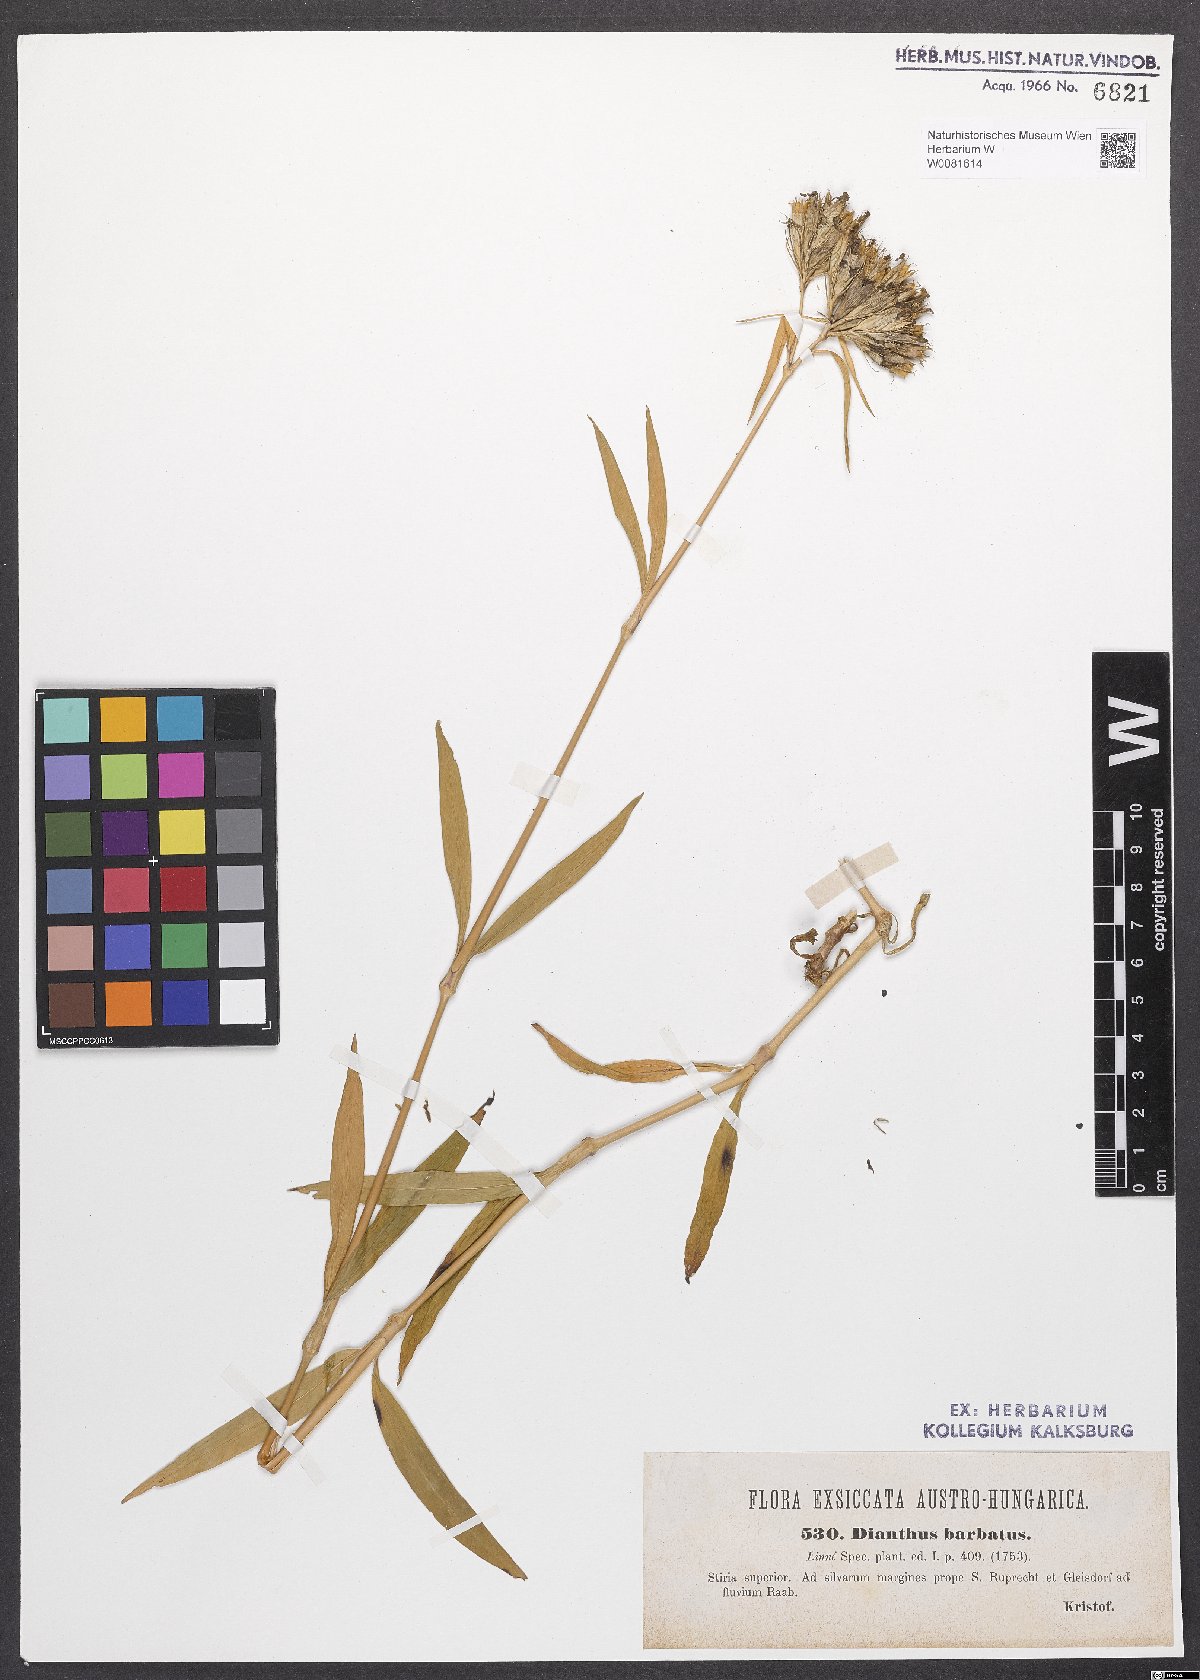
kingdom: Plantae
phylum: Tracheophyta
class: Magnoliopsida
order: Caryophyllales
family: Caryophyllaceae
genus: Dianthus
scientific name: Dianthus barbatus
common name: Sweet-william
